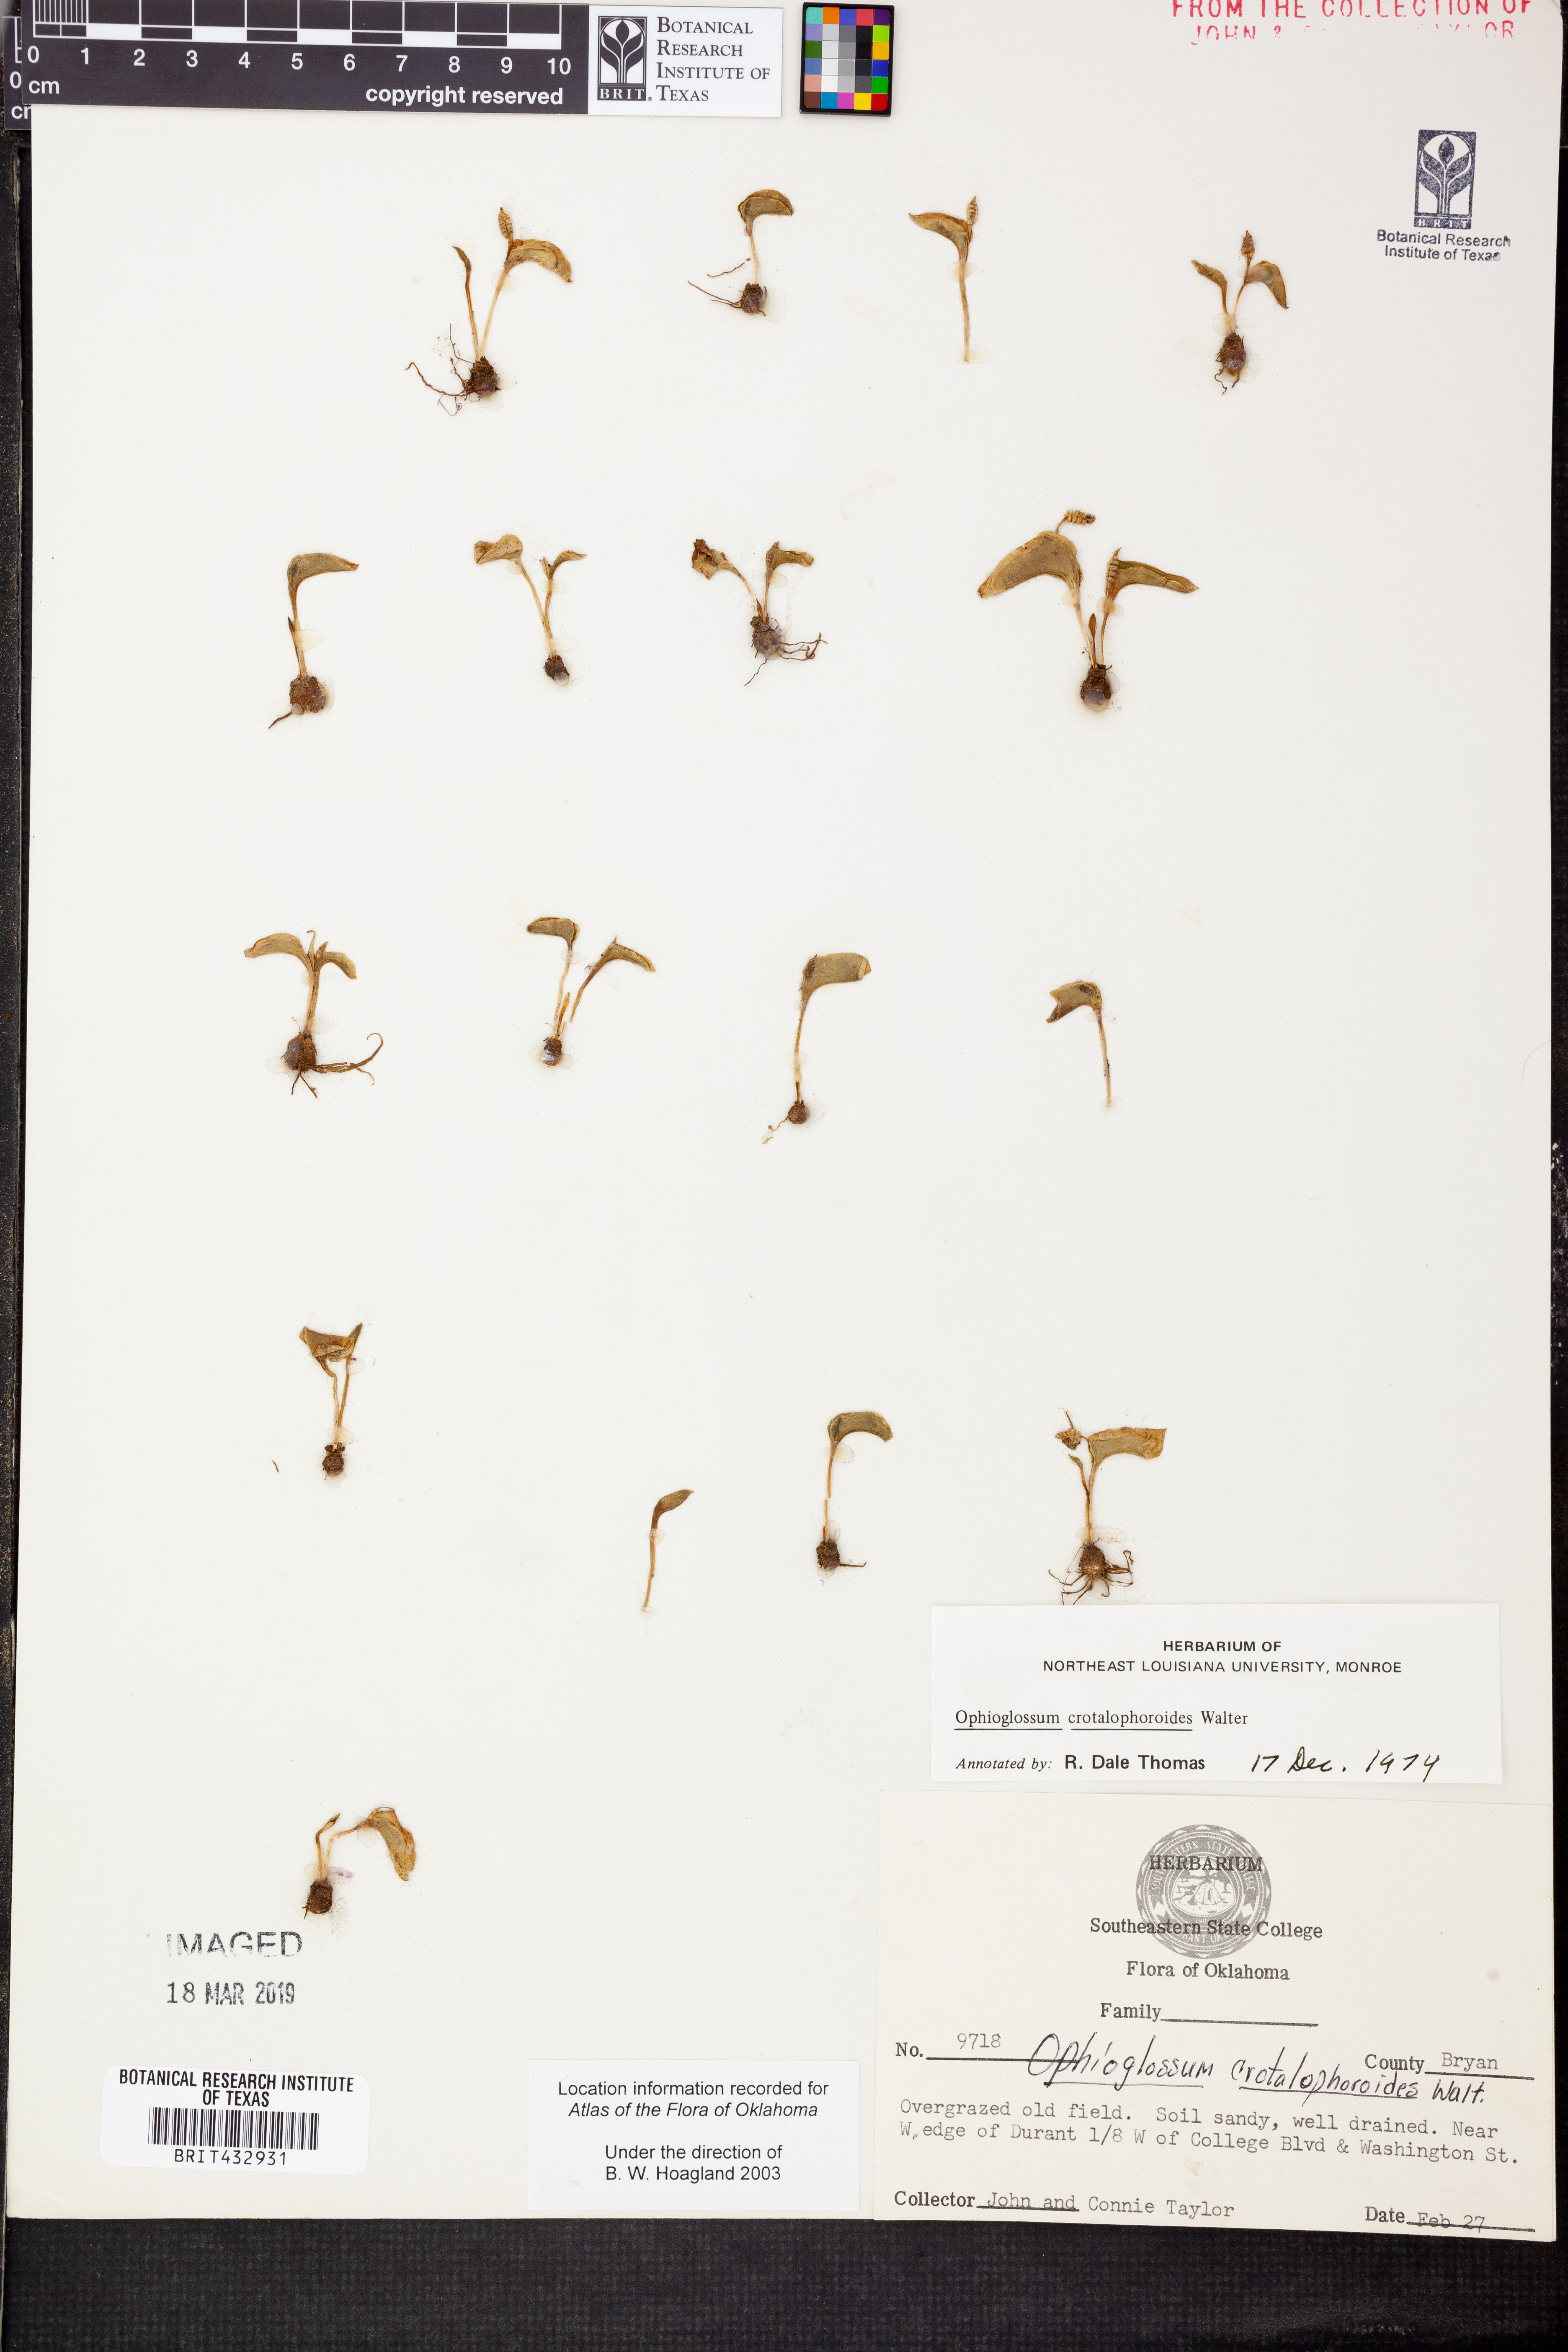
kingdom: Plantae
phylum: Tracheophyta
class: Polypodiopsida
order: Ophioglossales
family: Ophioglossaceae
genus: Ophioglossum
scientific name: Ophioglossum crotalophoroides
